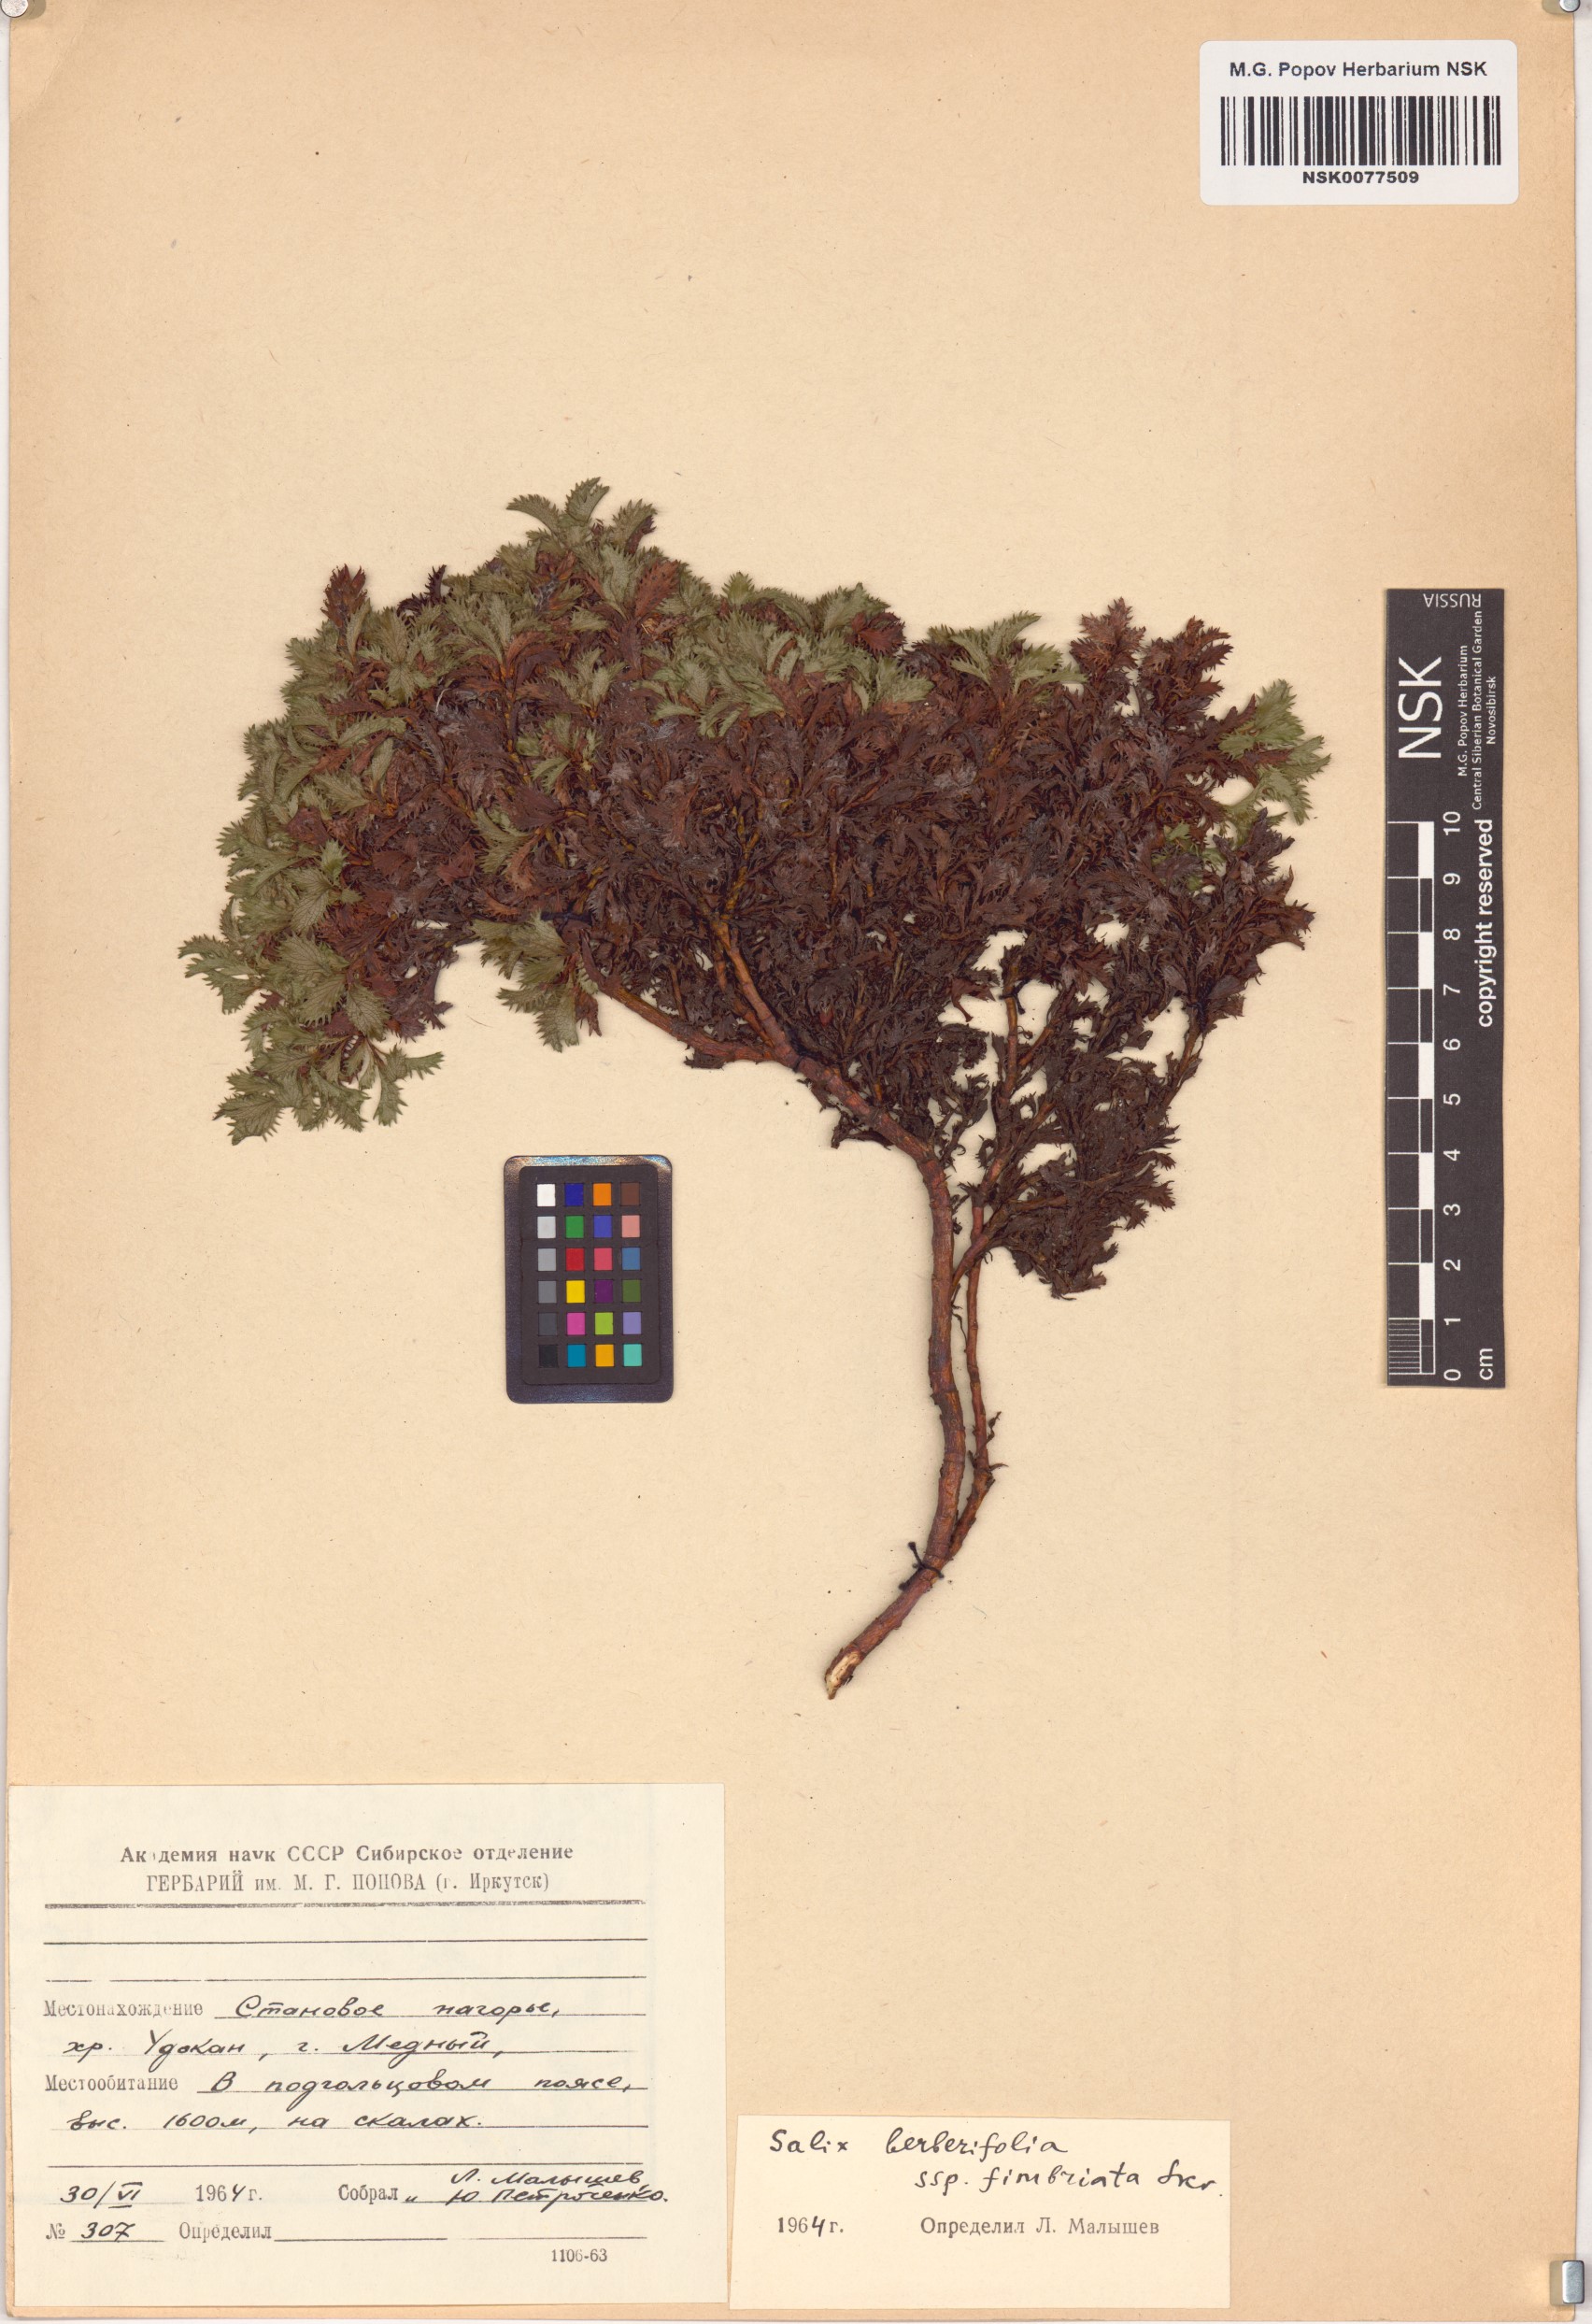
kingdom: Plantae
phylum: Tracheophyta
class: Magnoliopsida
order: Malpighiales
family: Salicaceae
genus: Salix
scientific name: Salix berberifolia
